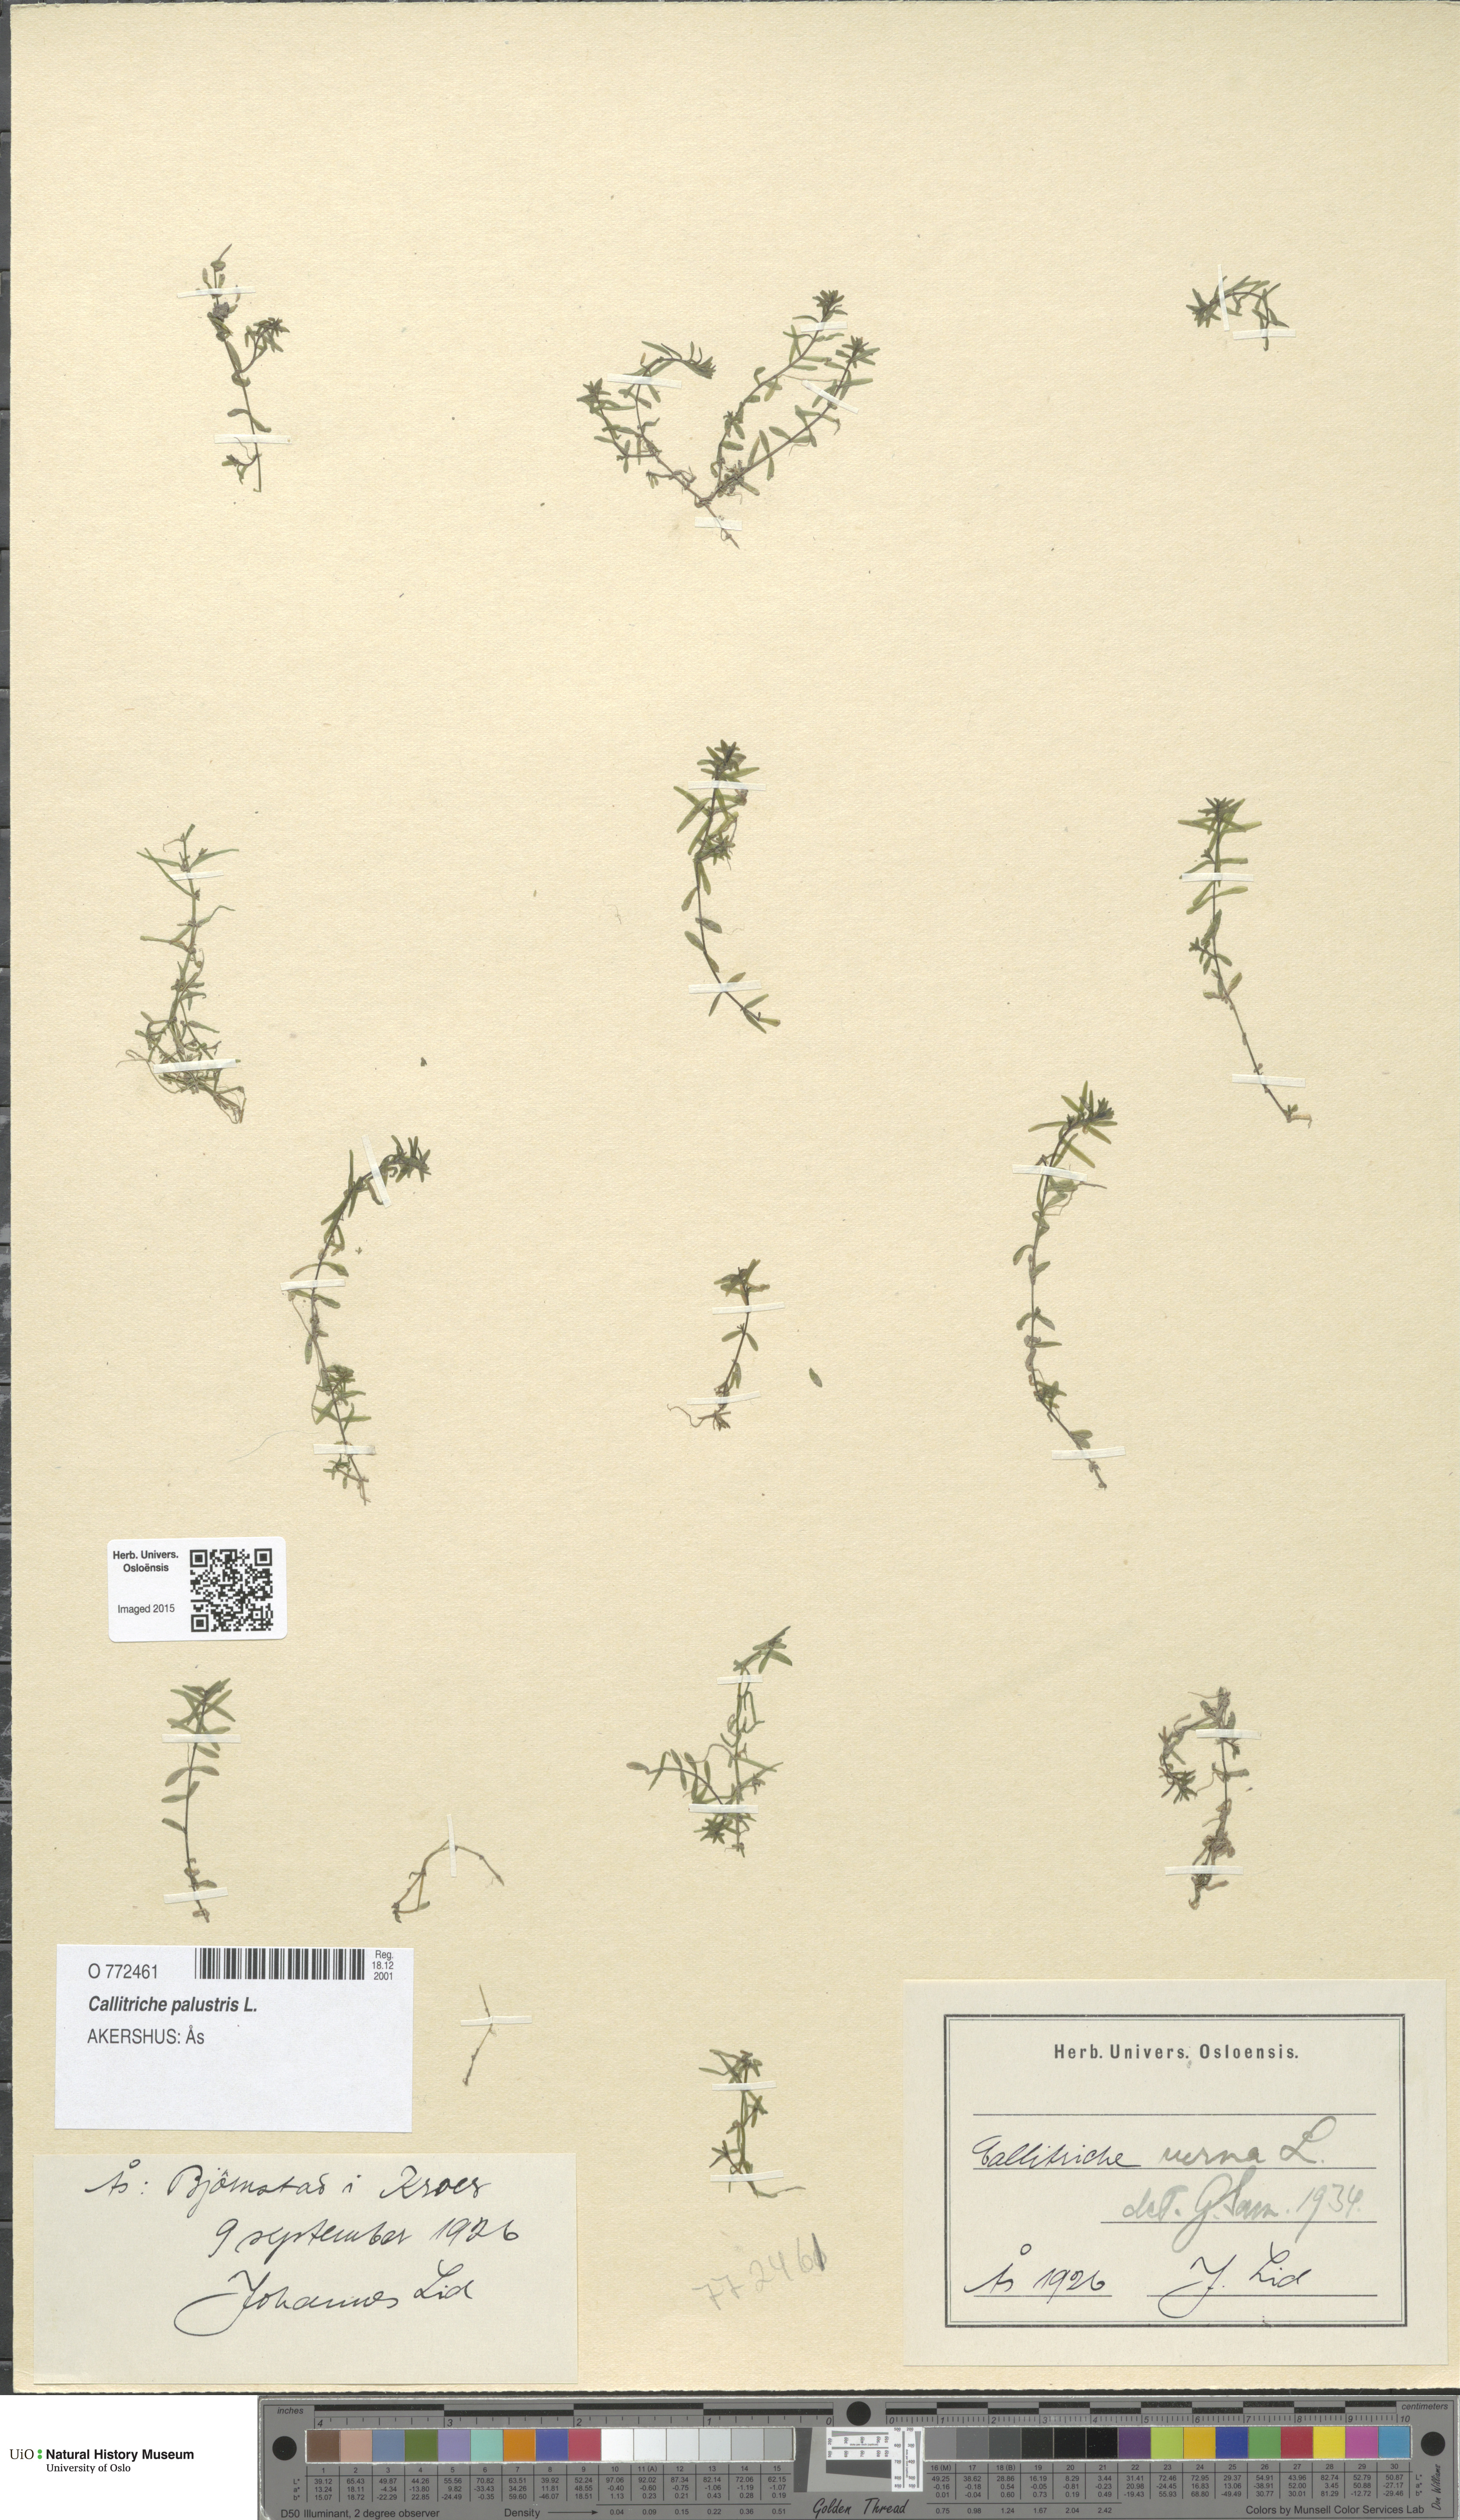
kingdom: Plantae
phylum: Tracheophyta
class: Magnoliopsida
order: Lamiales
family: Plantaginaceae
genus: Callitriche
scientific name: Callitriche palustris
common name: Spring water-starwort
